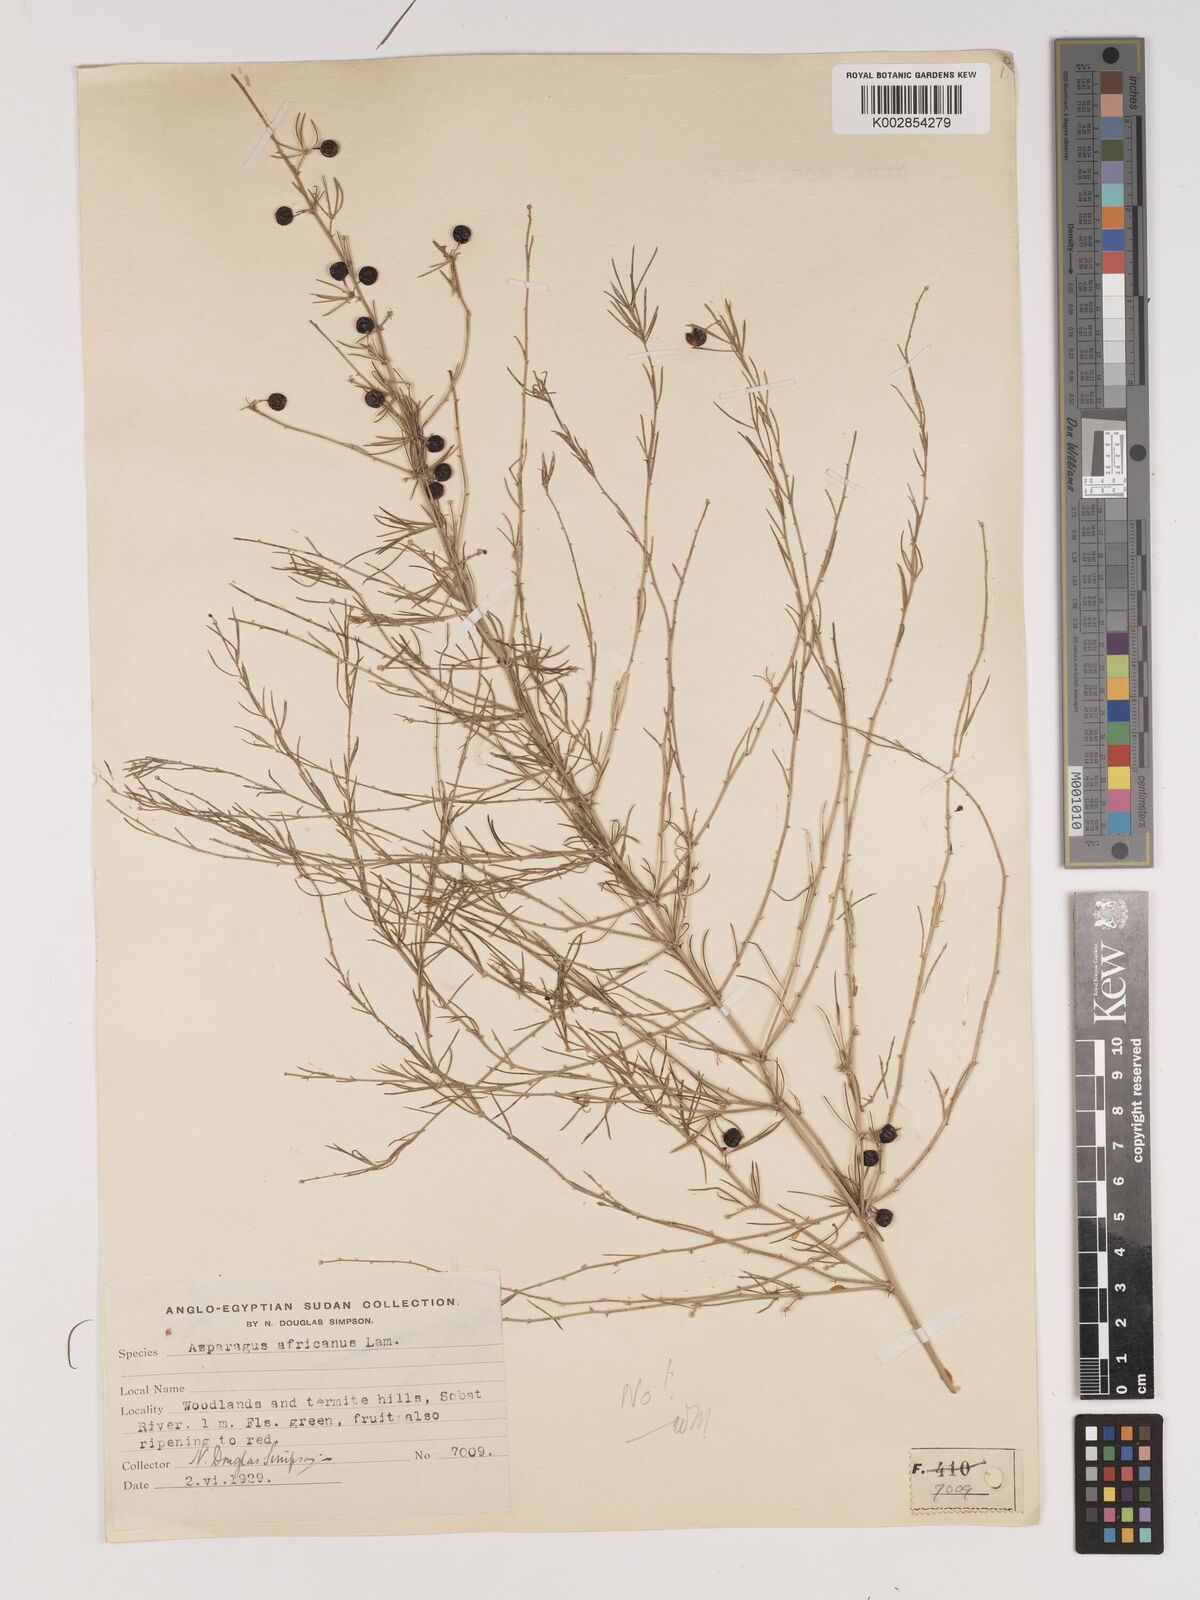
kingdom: Plantae
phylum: Tracheophyta
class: Liliopsida
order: Asparagales
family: Asparagaceae
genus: Asparagus
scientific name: Asparagus africanus
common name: Asparagus-fern
